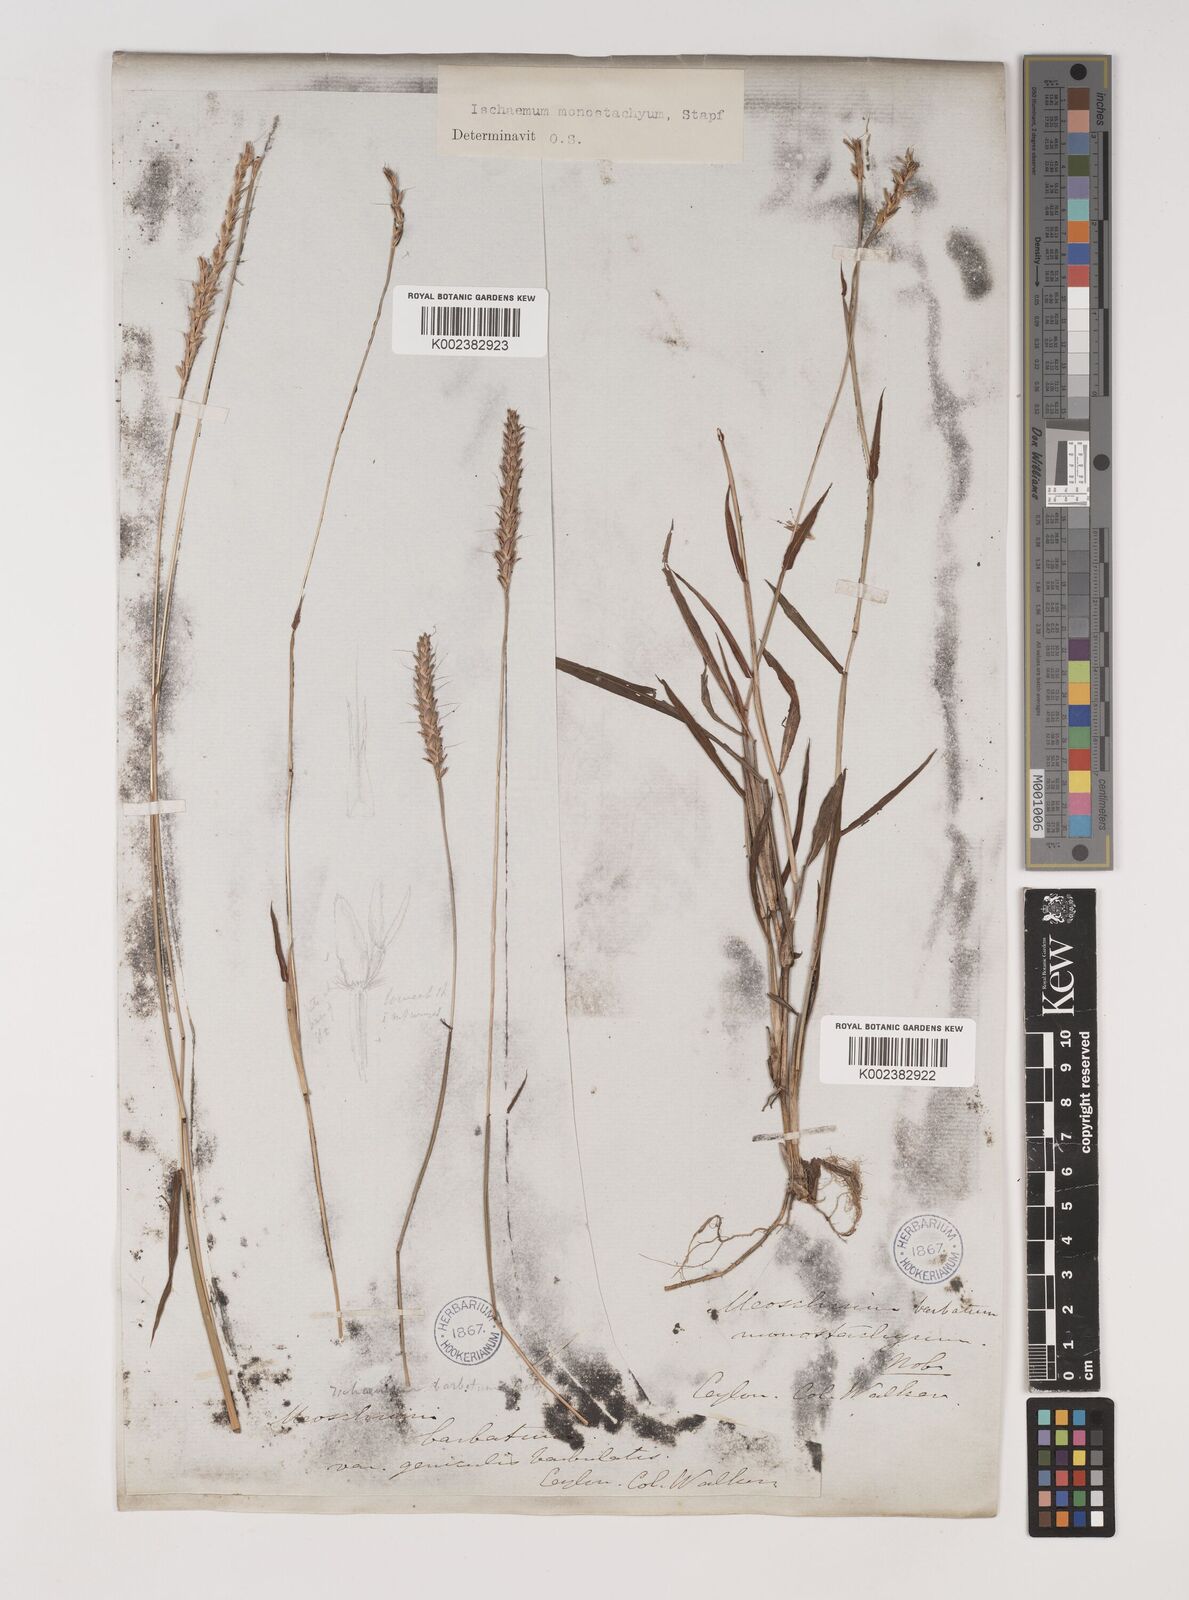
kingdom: Plantae
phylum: Tracheophyta
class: Liliopsida
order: Poales
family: Poaceae
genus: Ischaemum
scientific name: Ischaemum
